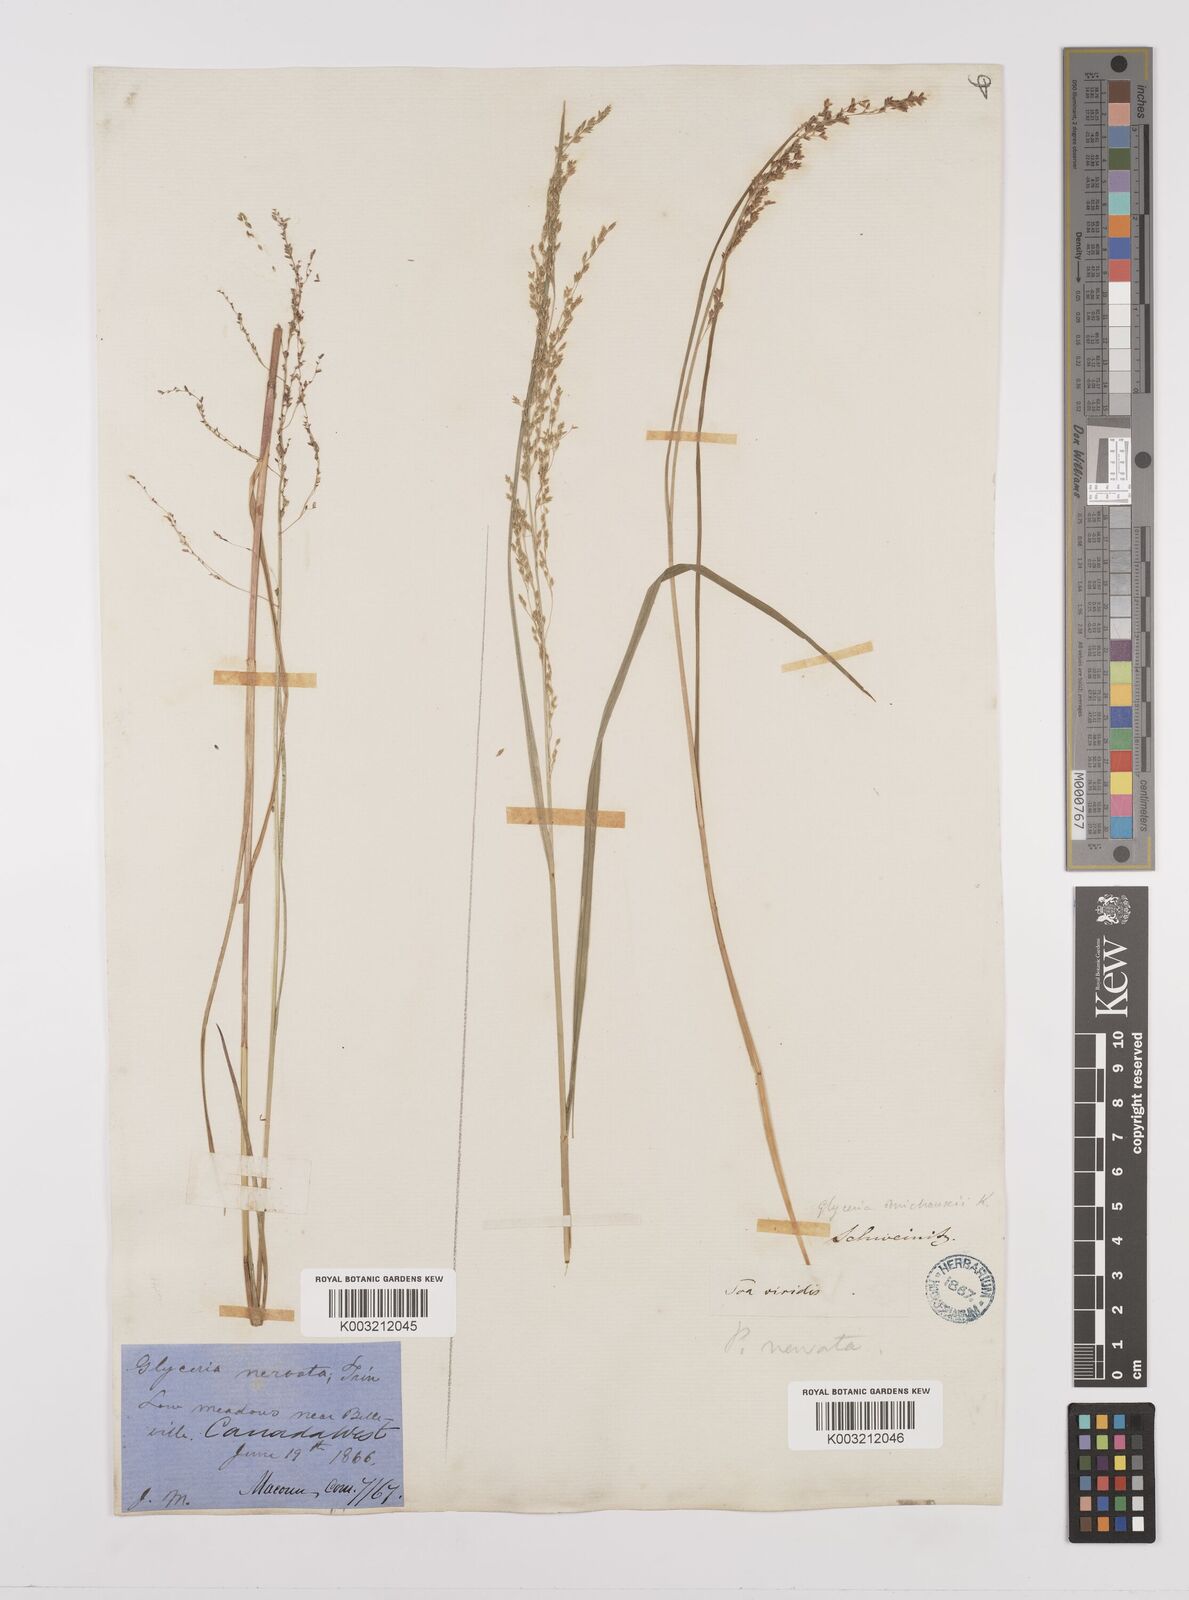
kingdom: Plantae
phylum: Tracheophyta
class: Liliopsida
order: Poales
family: Poaceae
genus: Glyceria
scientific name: Glyceria striata
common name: Fowl manna grass
